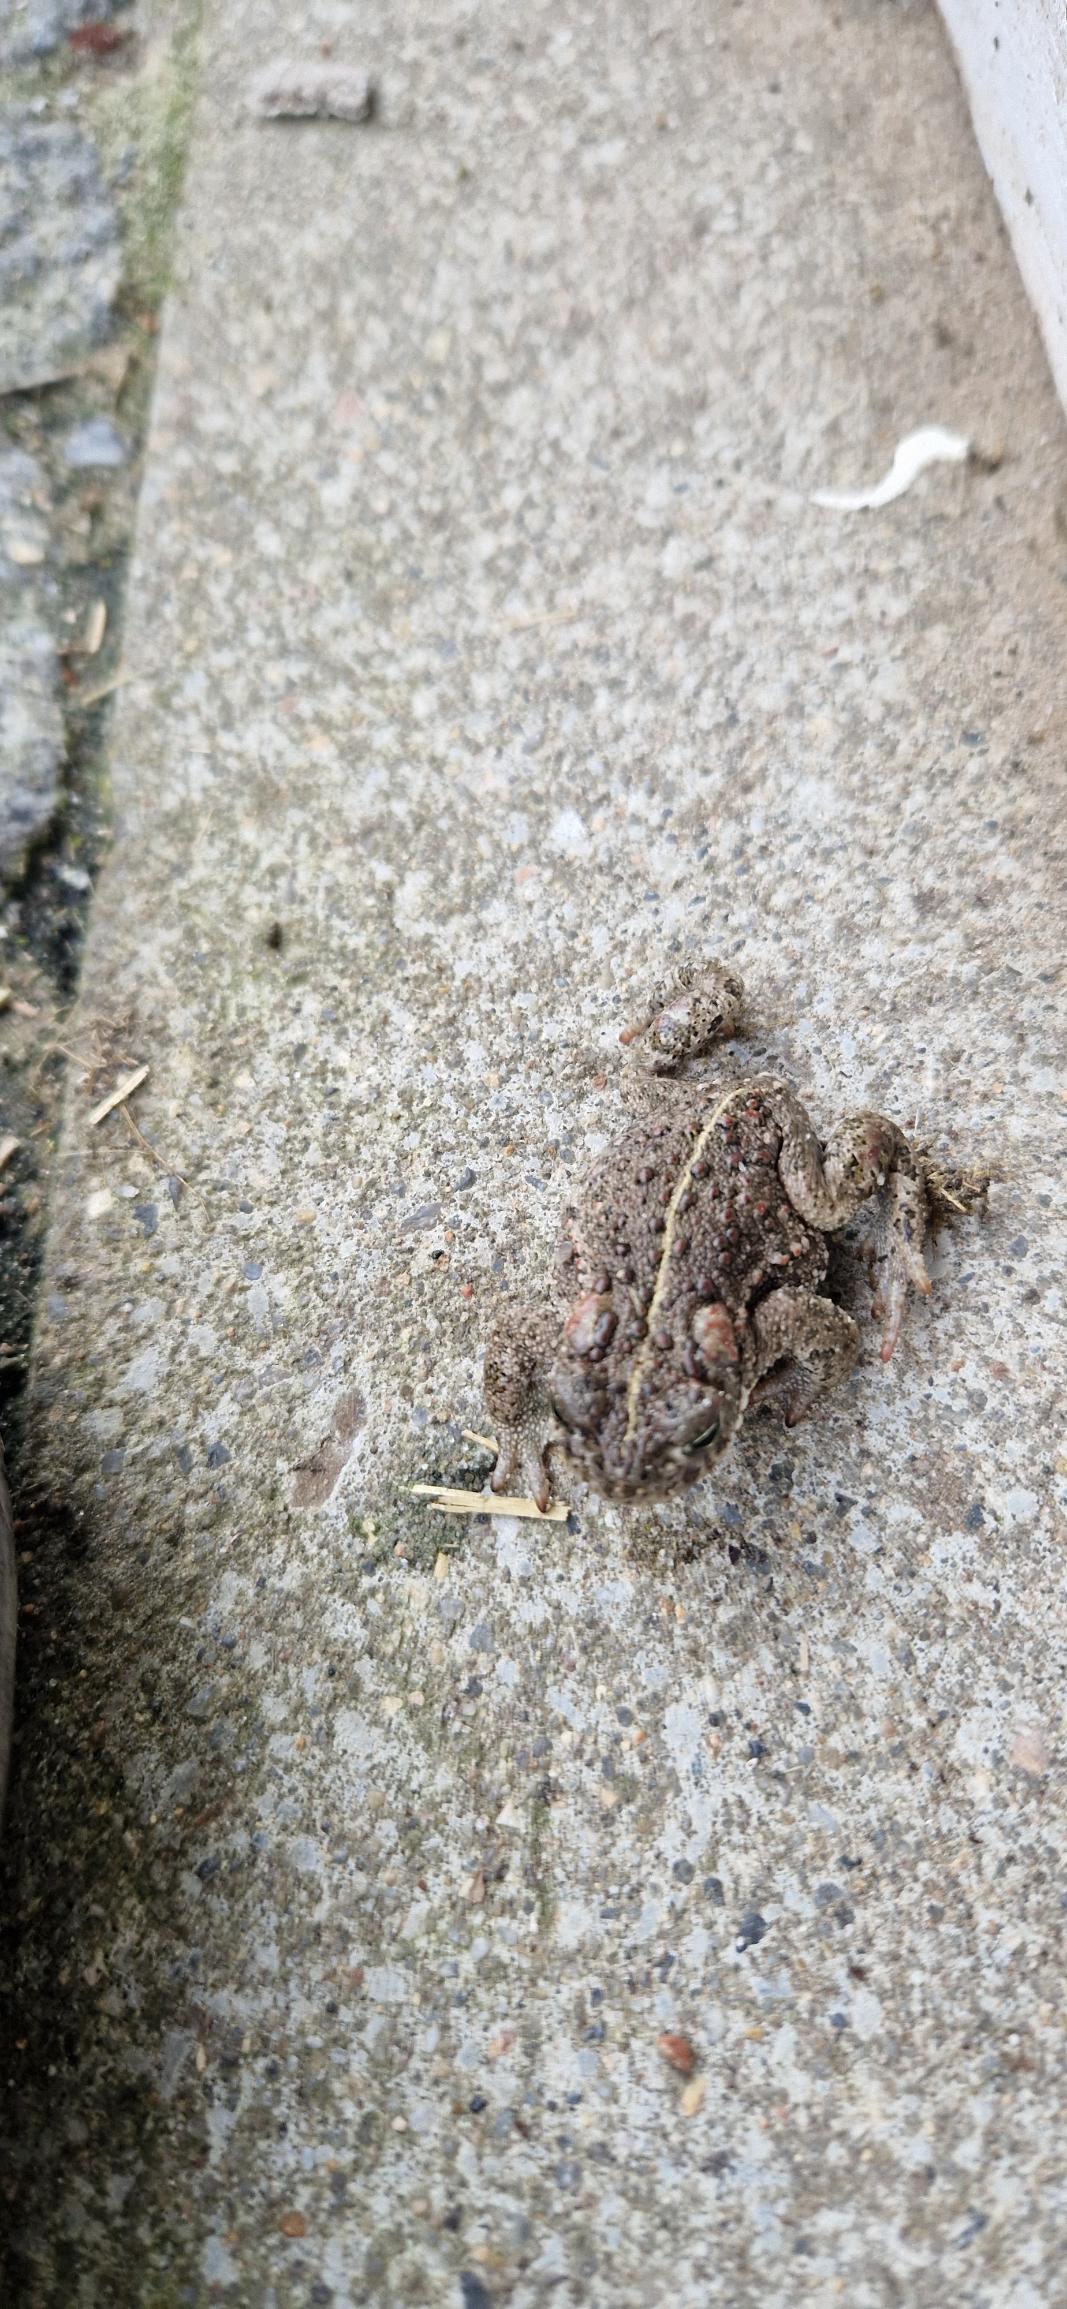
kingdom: Animalia
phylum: Chordata
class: Amphibia
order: Anura
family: Bufonidae
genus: Epidalea
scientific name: Epidalea calamita
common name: Strandtudse
